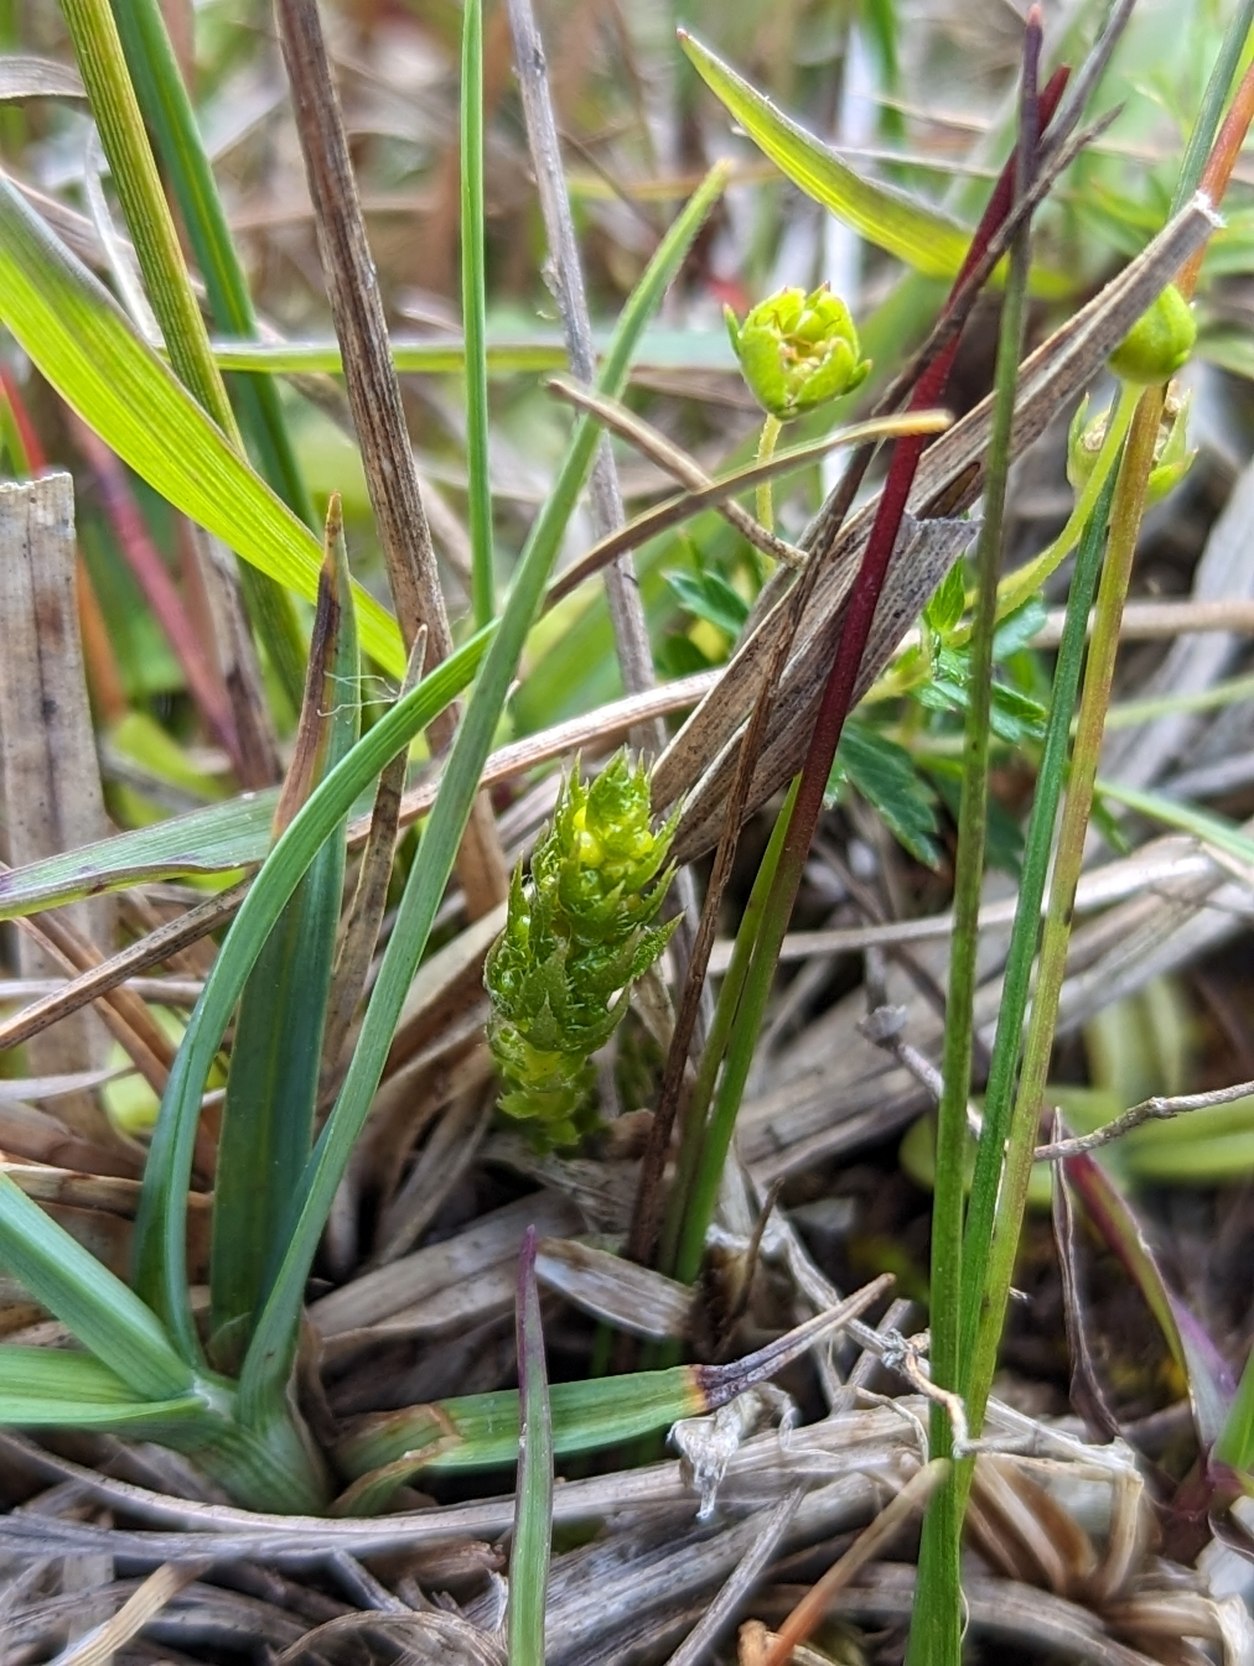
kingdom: Plantae
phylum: Tracheophyta
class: Lycopodiopsida
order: Selaginellales
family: Selaginellaceae
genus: Selaginella
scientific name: Selaginella selaginoides
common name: Dværgulvefod
